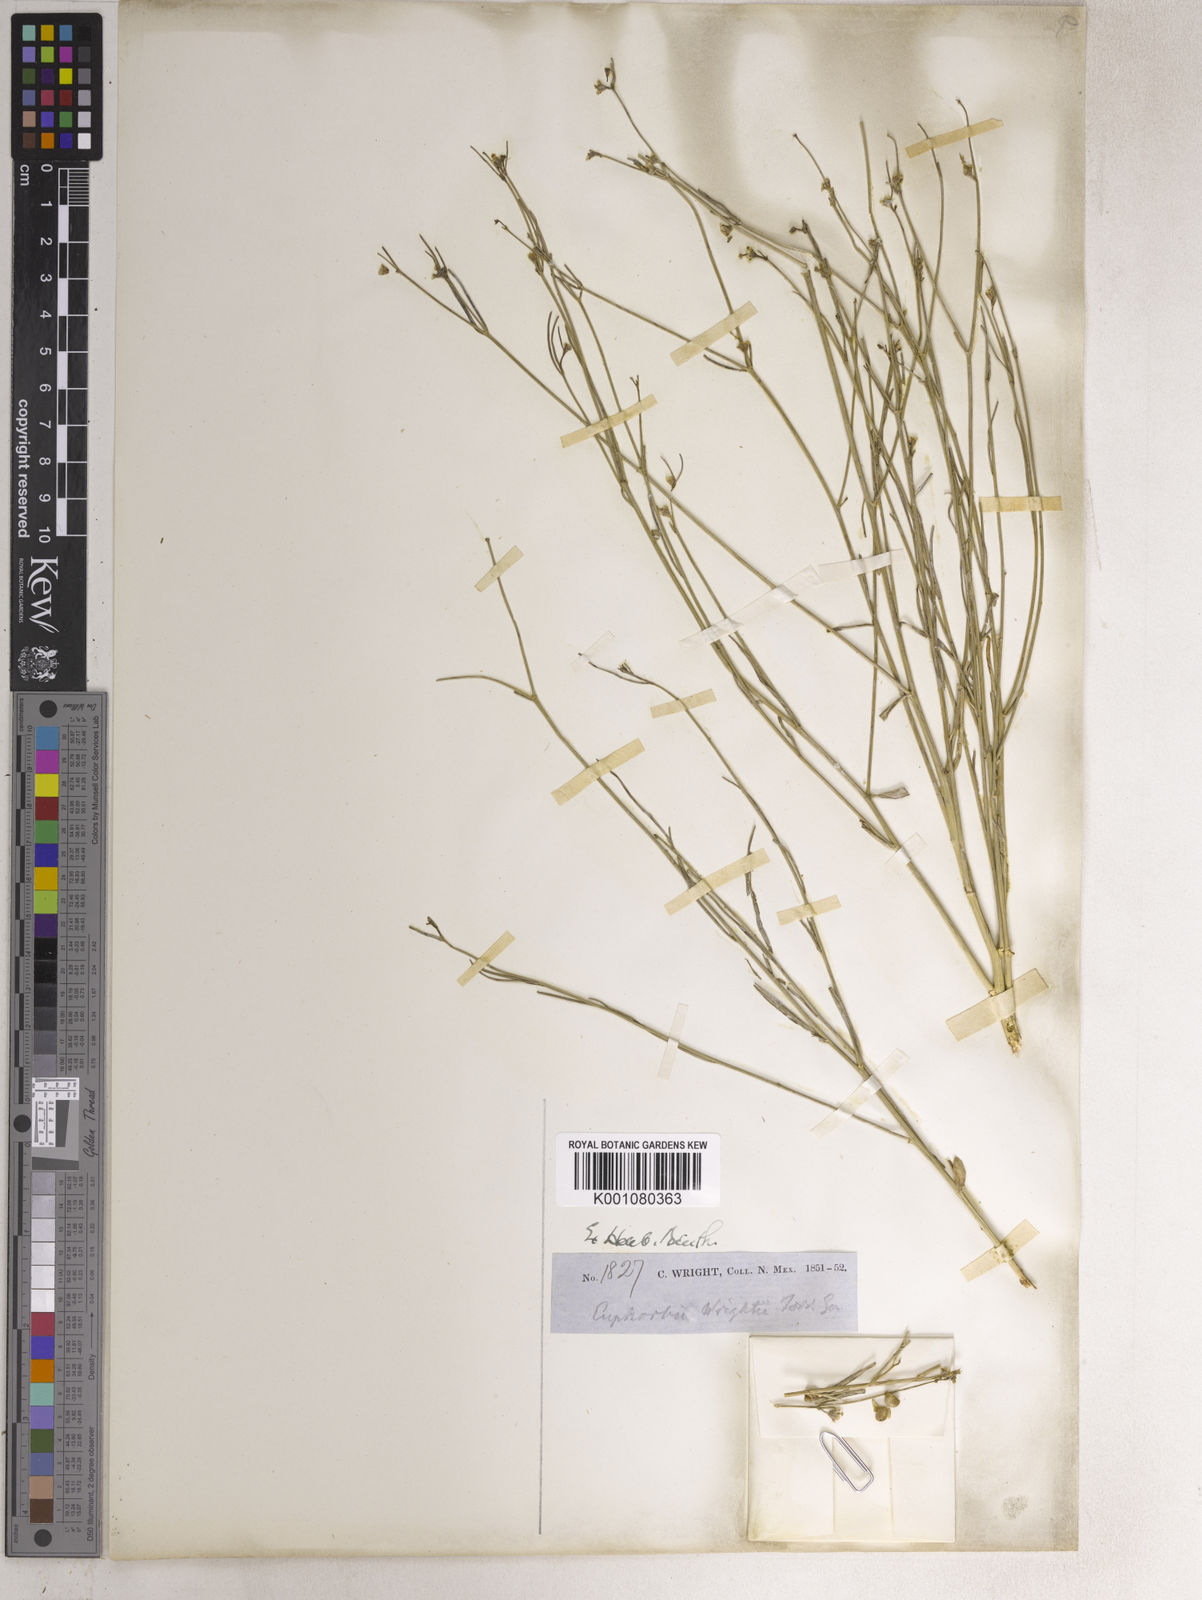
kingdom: Plantae
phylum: Tracheophyta
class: Magnoliopsida
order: Malpighiales
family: Euphorbiaceae
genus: Euphorbia
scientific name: Euphorbia wrightii
